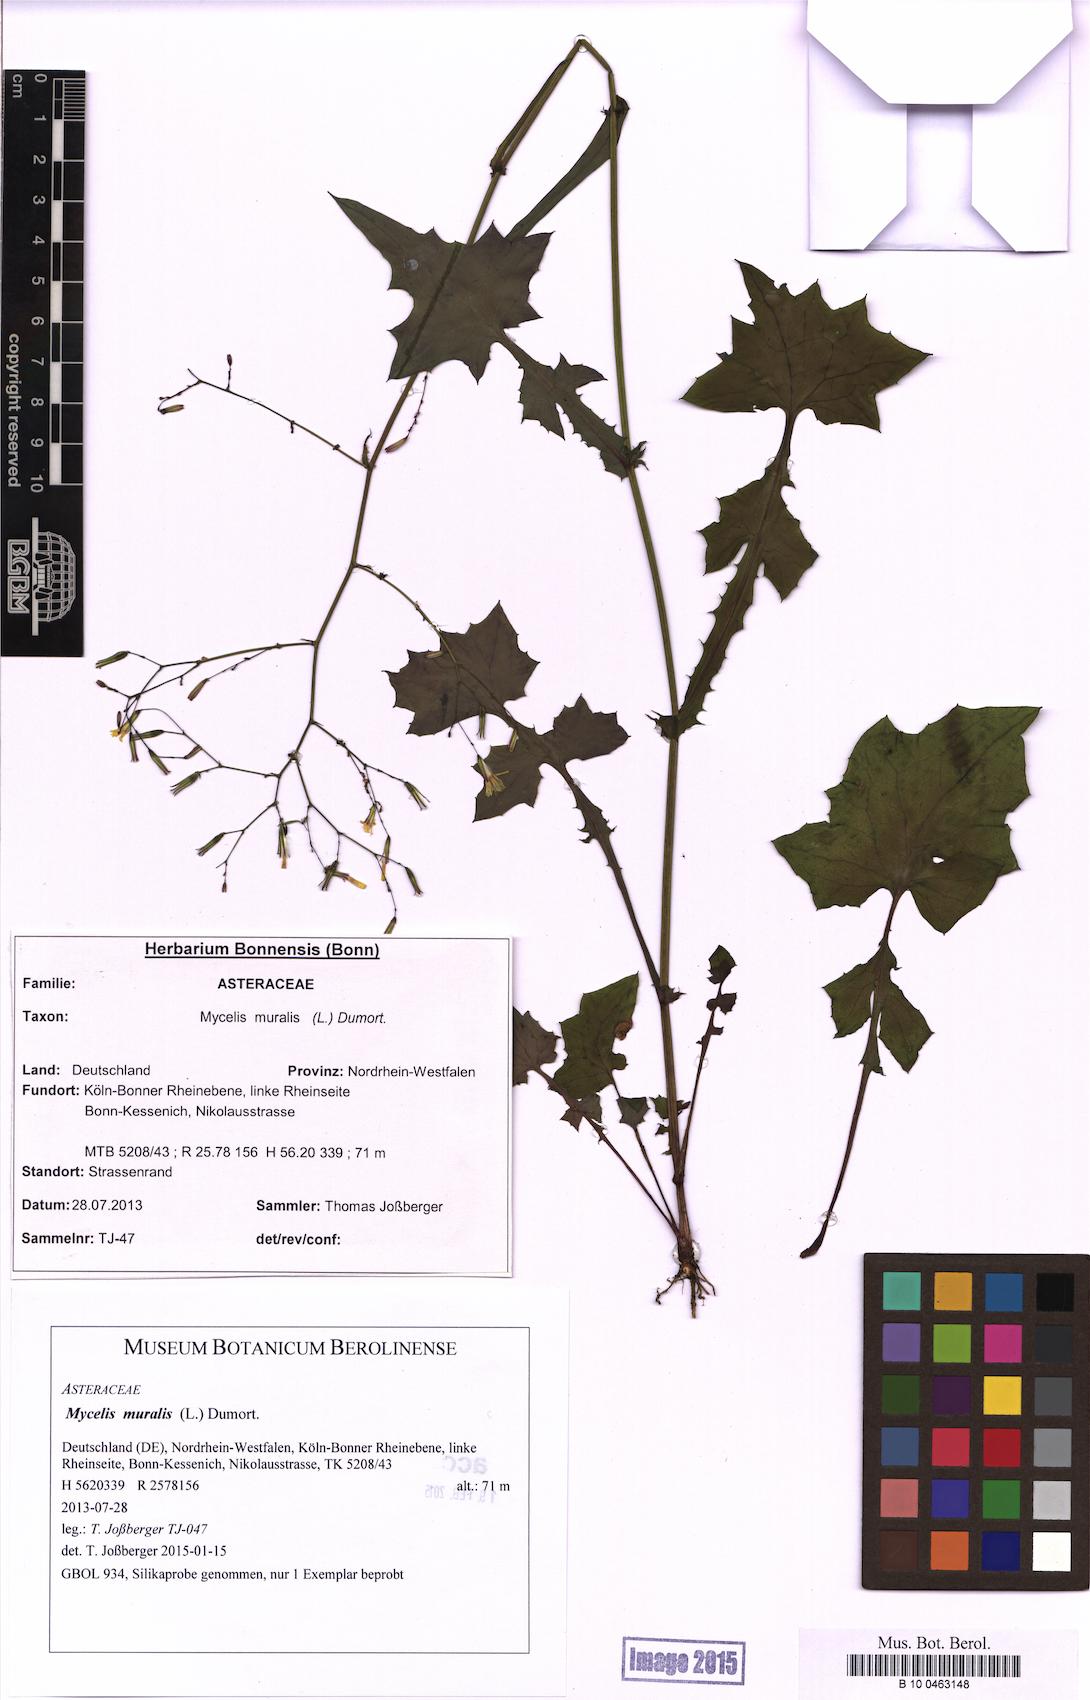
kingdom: Plantae
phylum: Tracheophyta
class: Magnoliopsida
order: Asterales
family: Asteraceae
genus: Mycelis
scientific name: Mycelis muralis
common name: Wall lettuce
